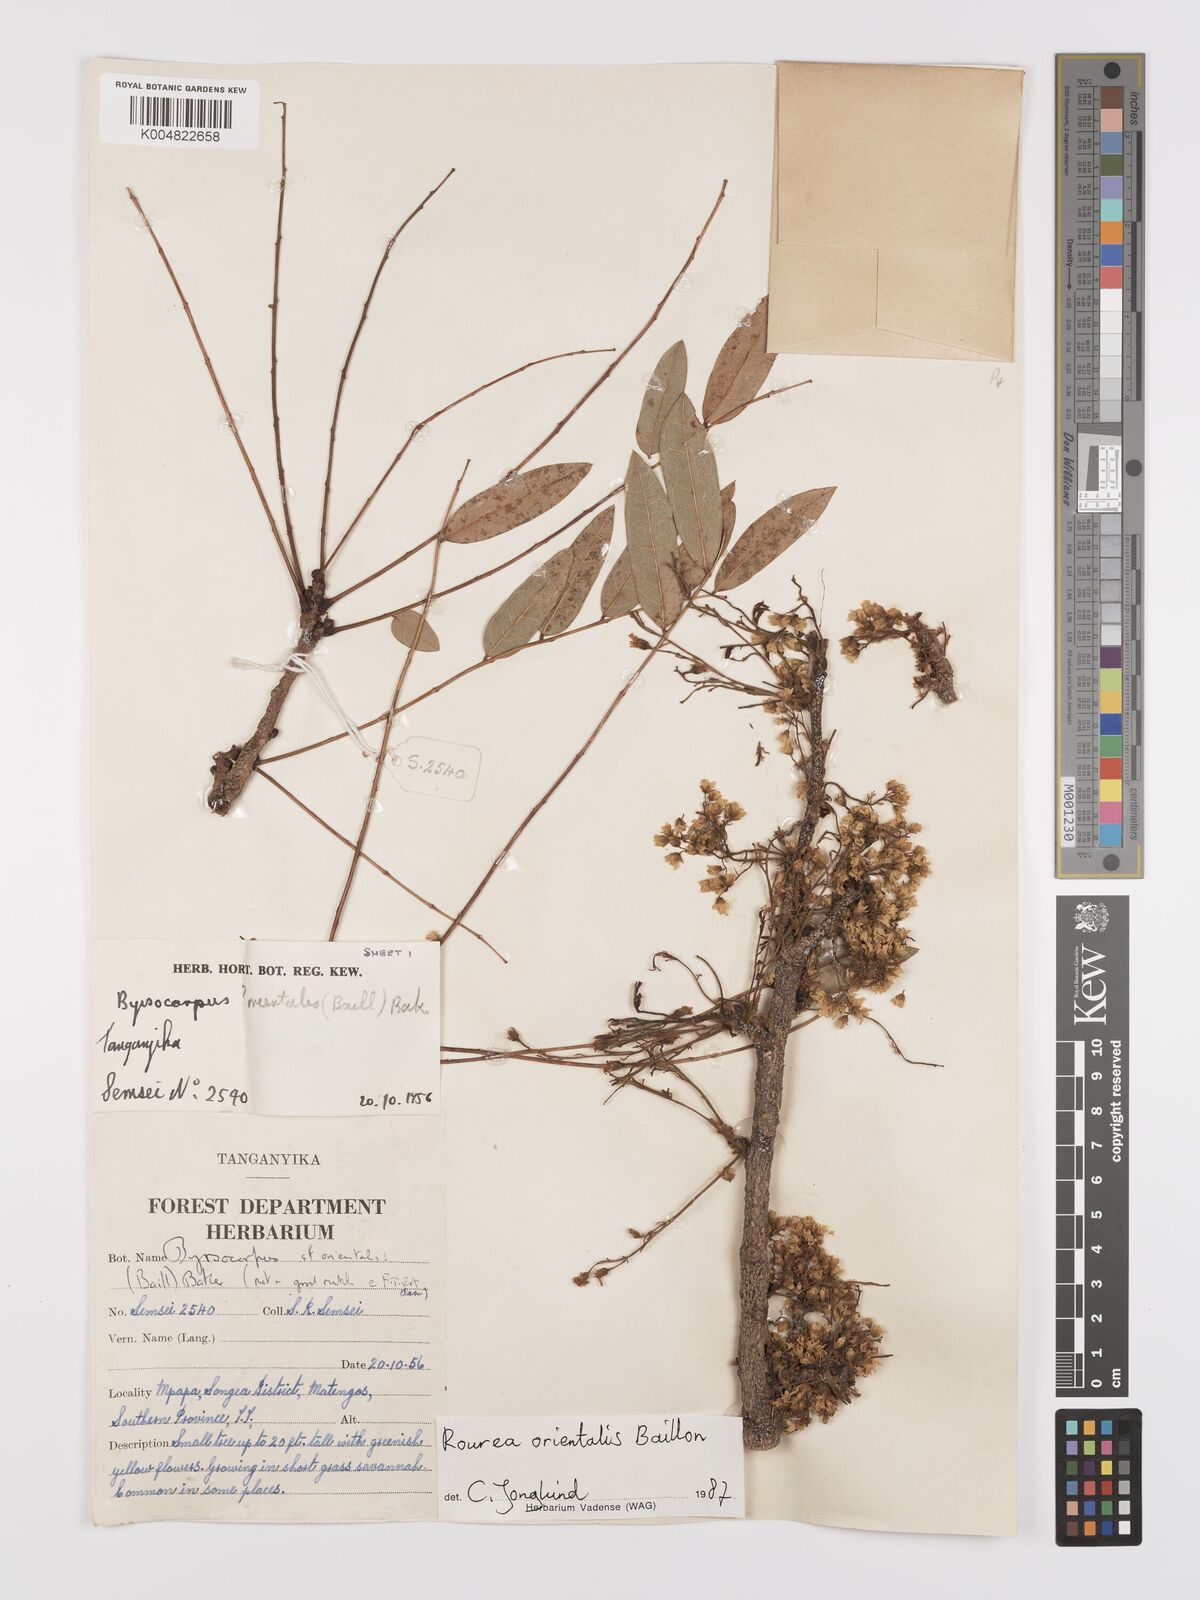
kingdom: Plantae
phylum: Tracheophyta
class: Magnoliopsida
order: Oxalidales
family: Connaraceae
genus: Rourea
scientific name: Rourea orientalis
